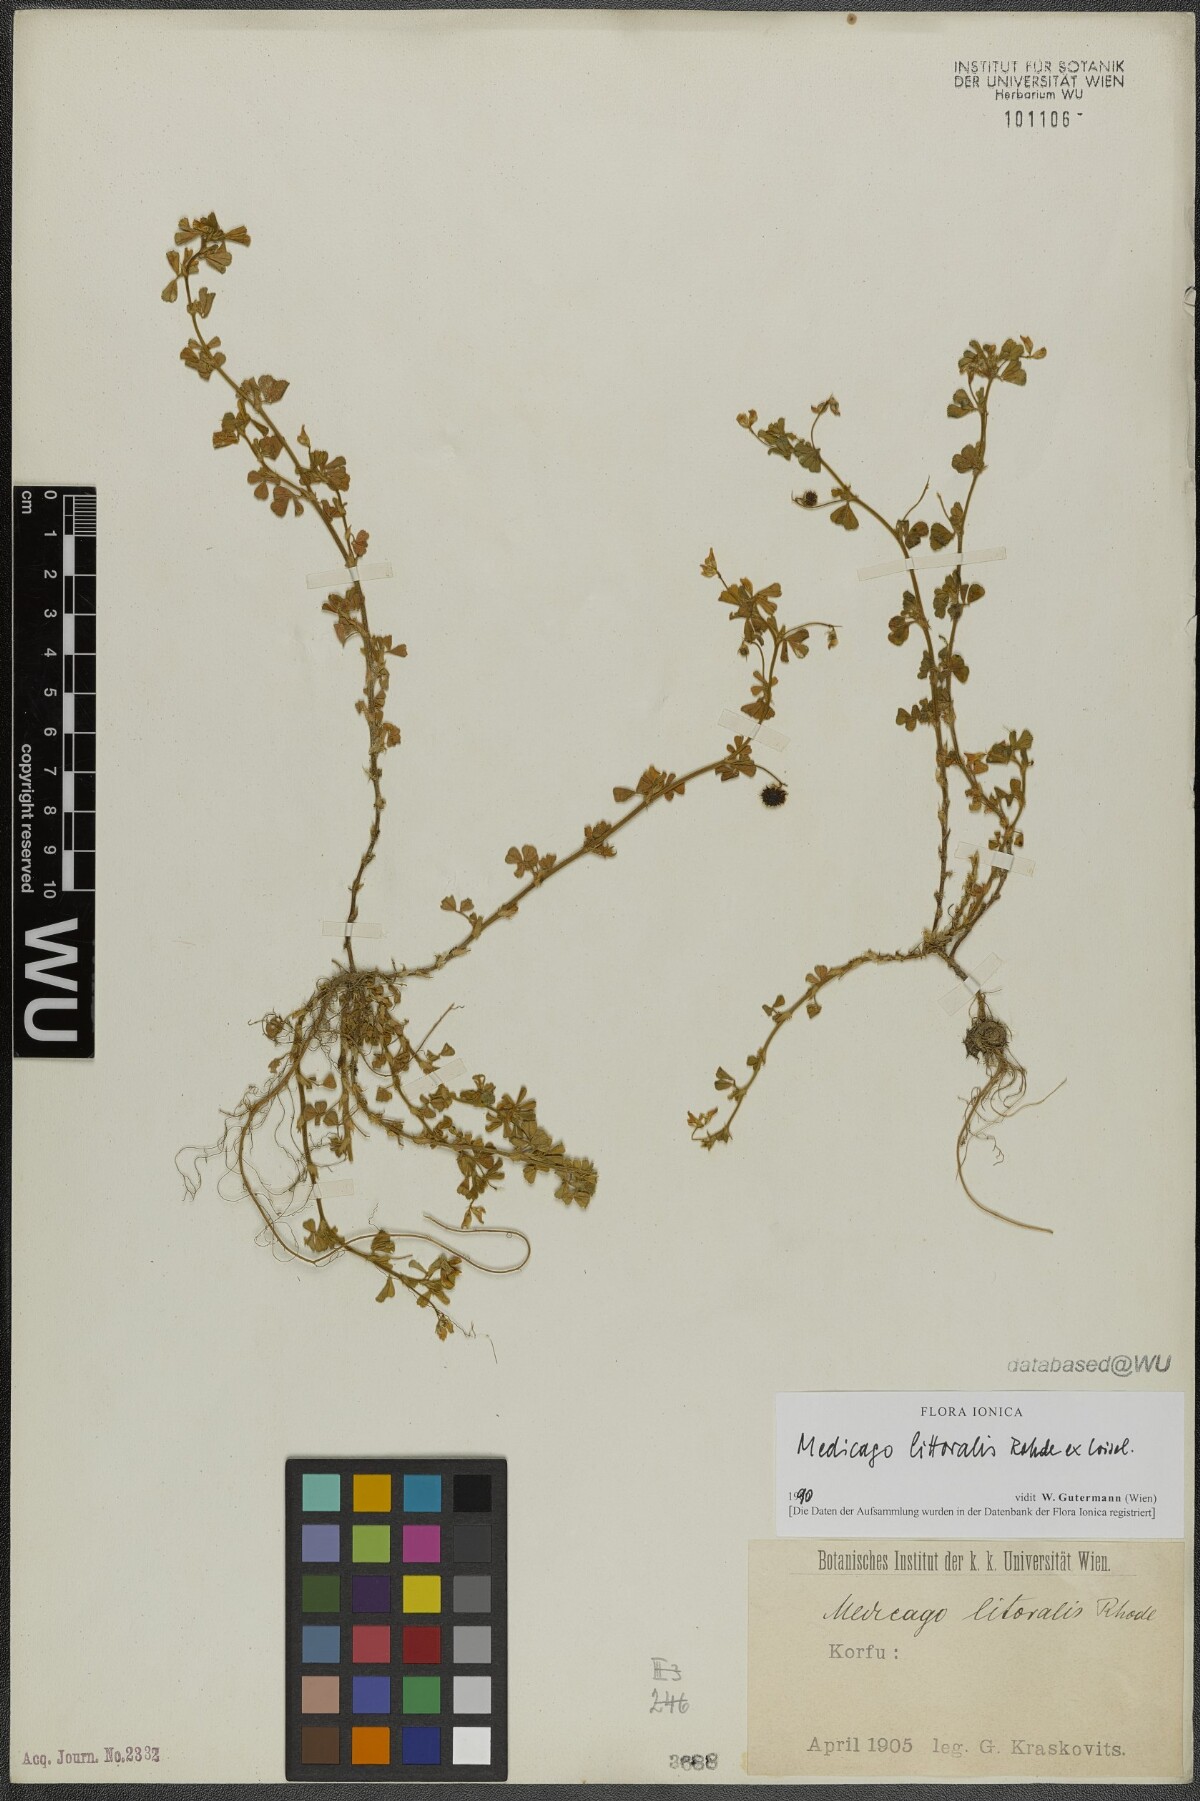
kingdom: Plantae
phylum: Tracheophyta
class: Magnoliopsida
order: Fabales
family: Fabaceae
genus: Medicago
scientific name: Medicago littoralis
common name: Shore medick
